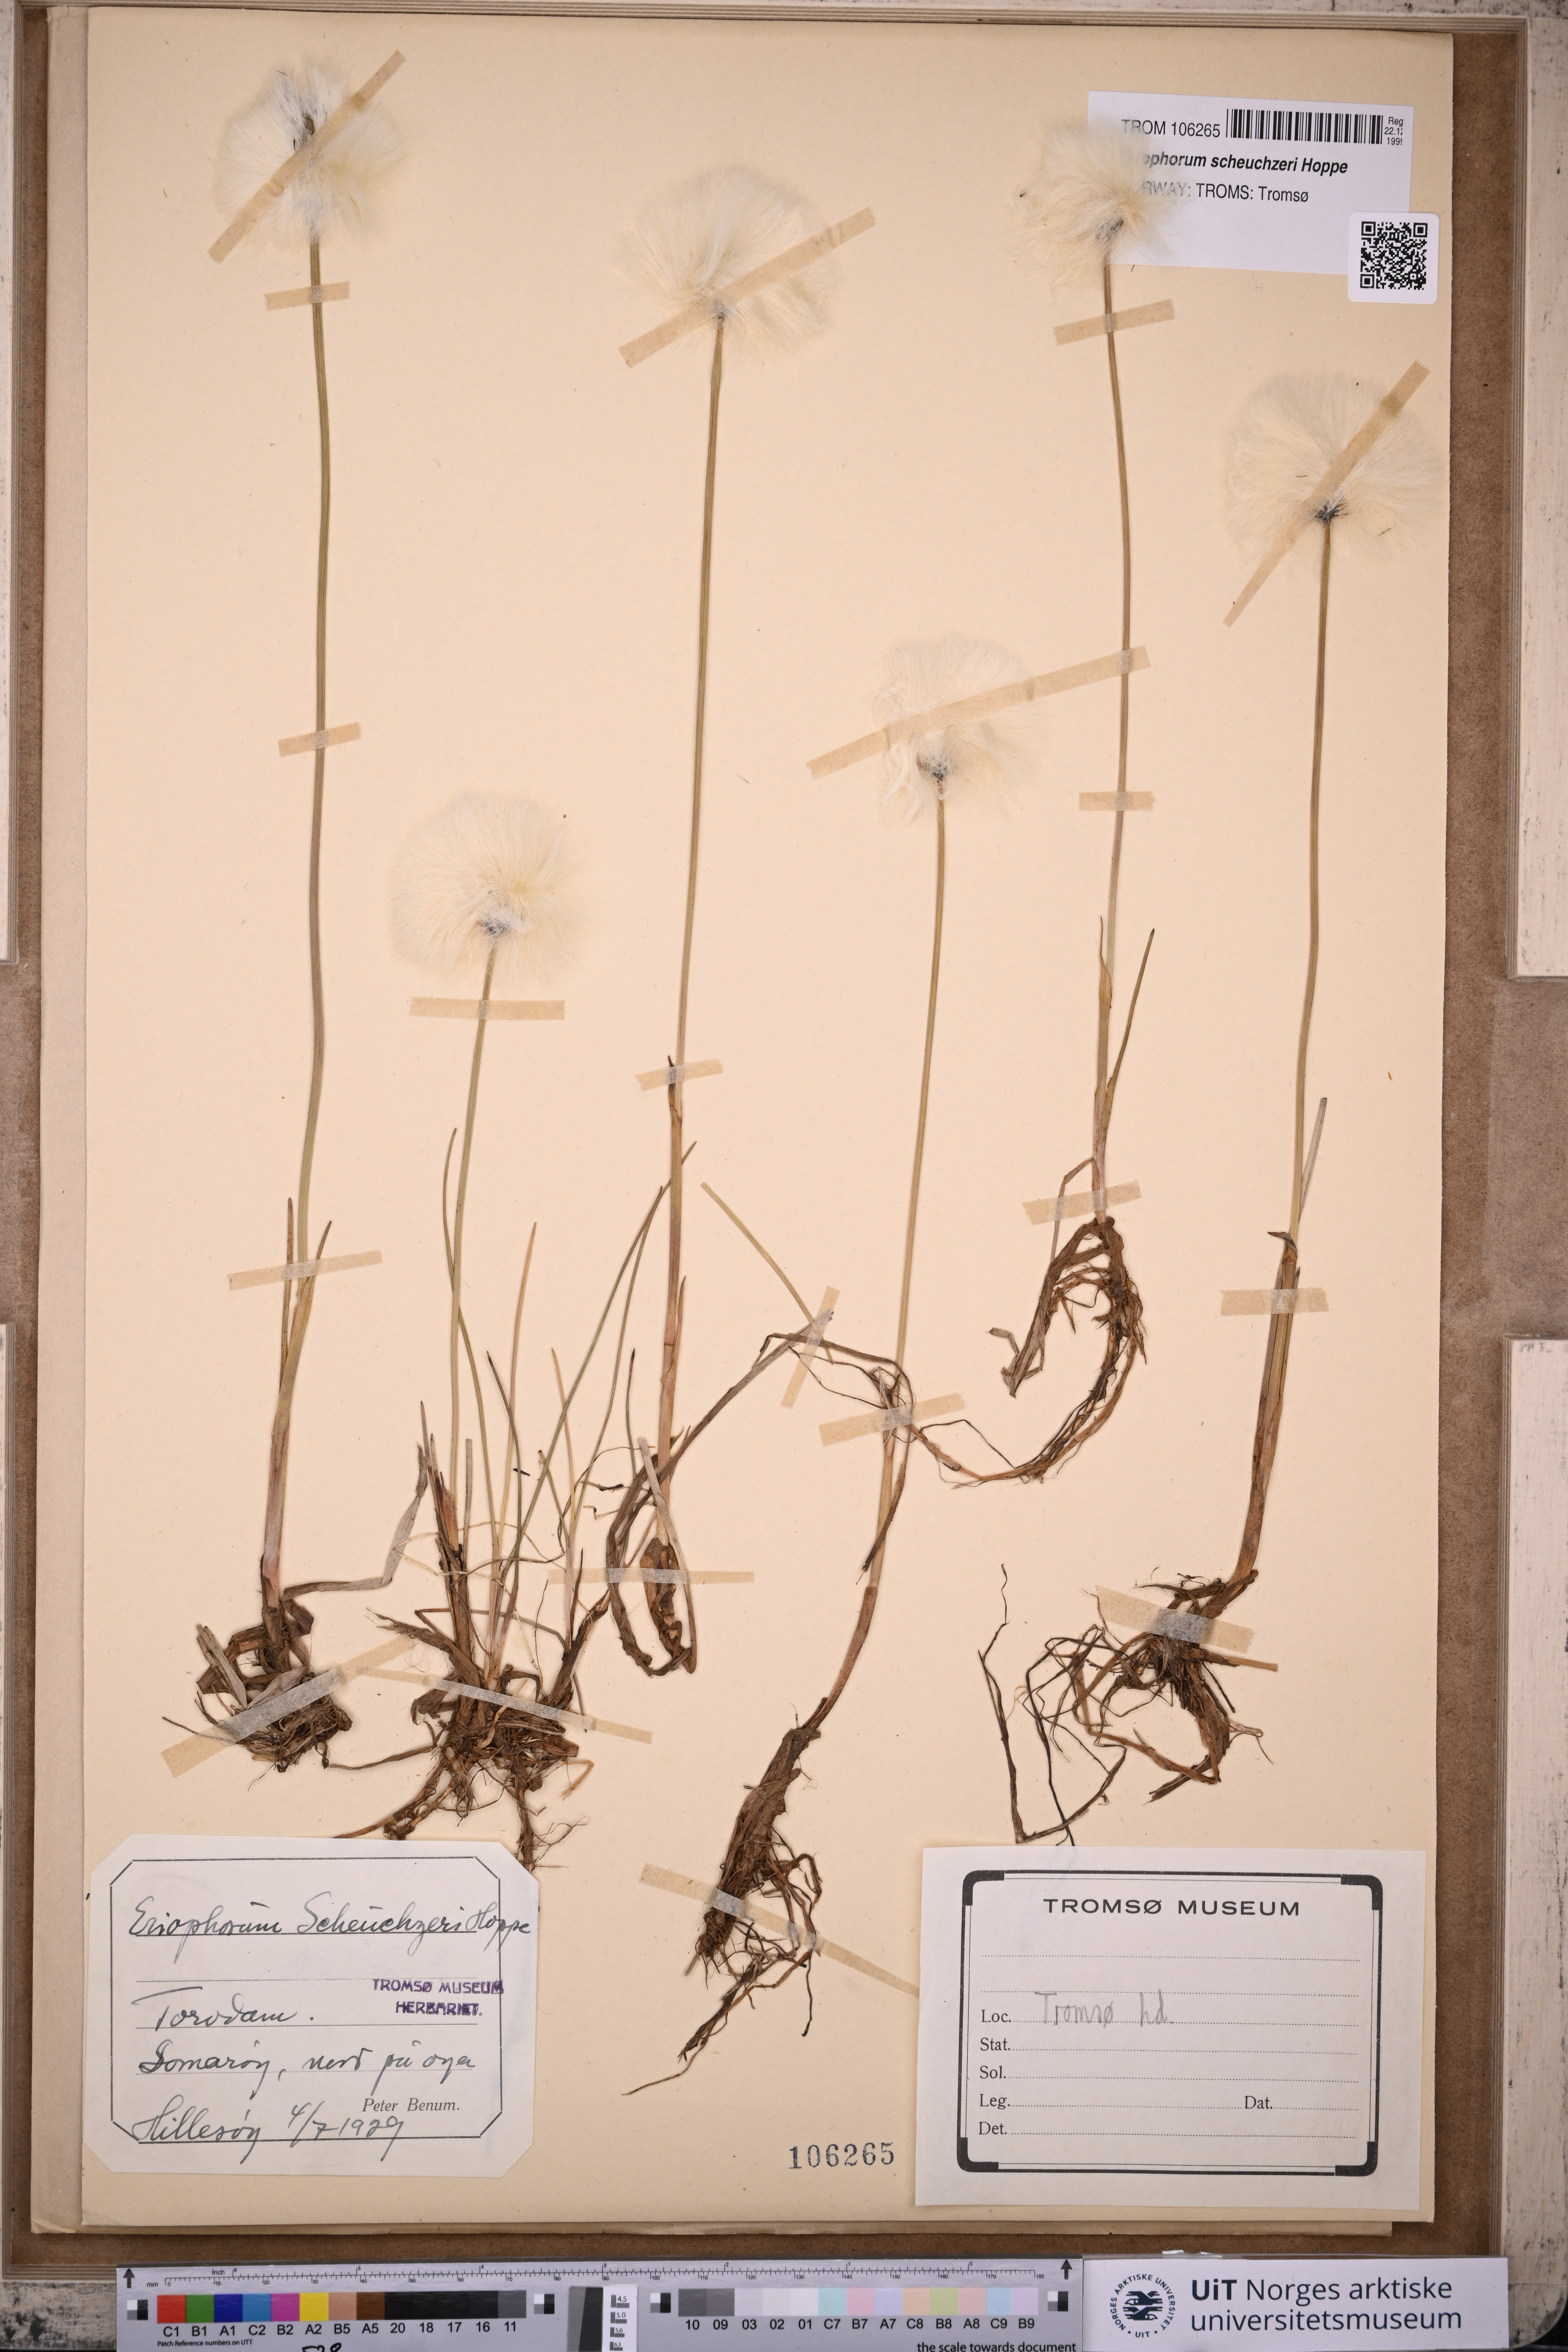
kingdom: Plantae
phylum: Tracheophyta
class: Liliopsida
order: Poales
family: Cyperaceae
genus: Eriophorum
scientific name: Eriophorum scheuchzeri
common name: Scheuchzer's cottongrass
